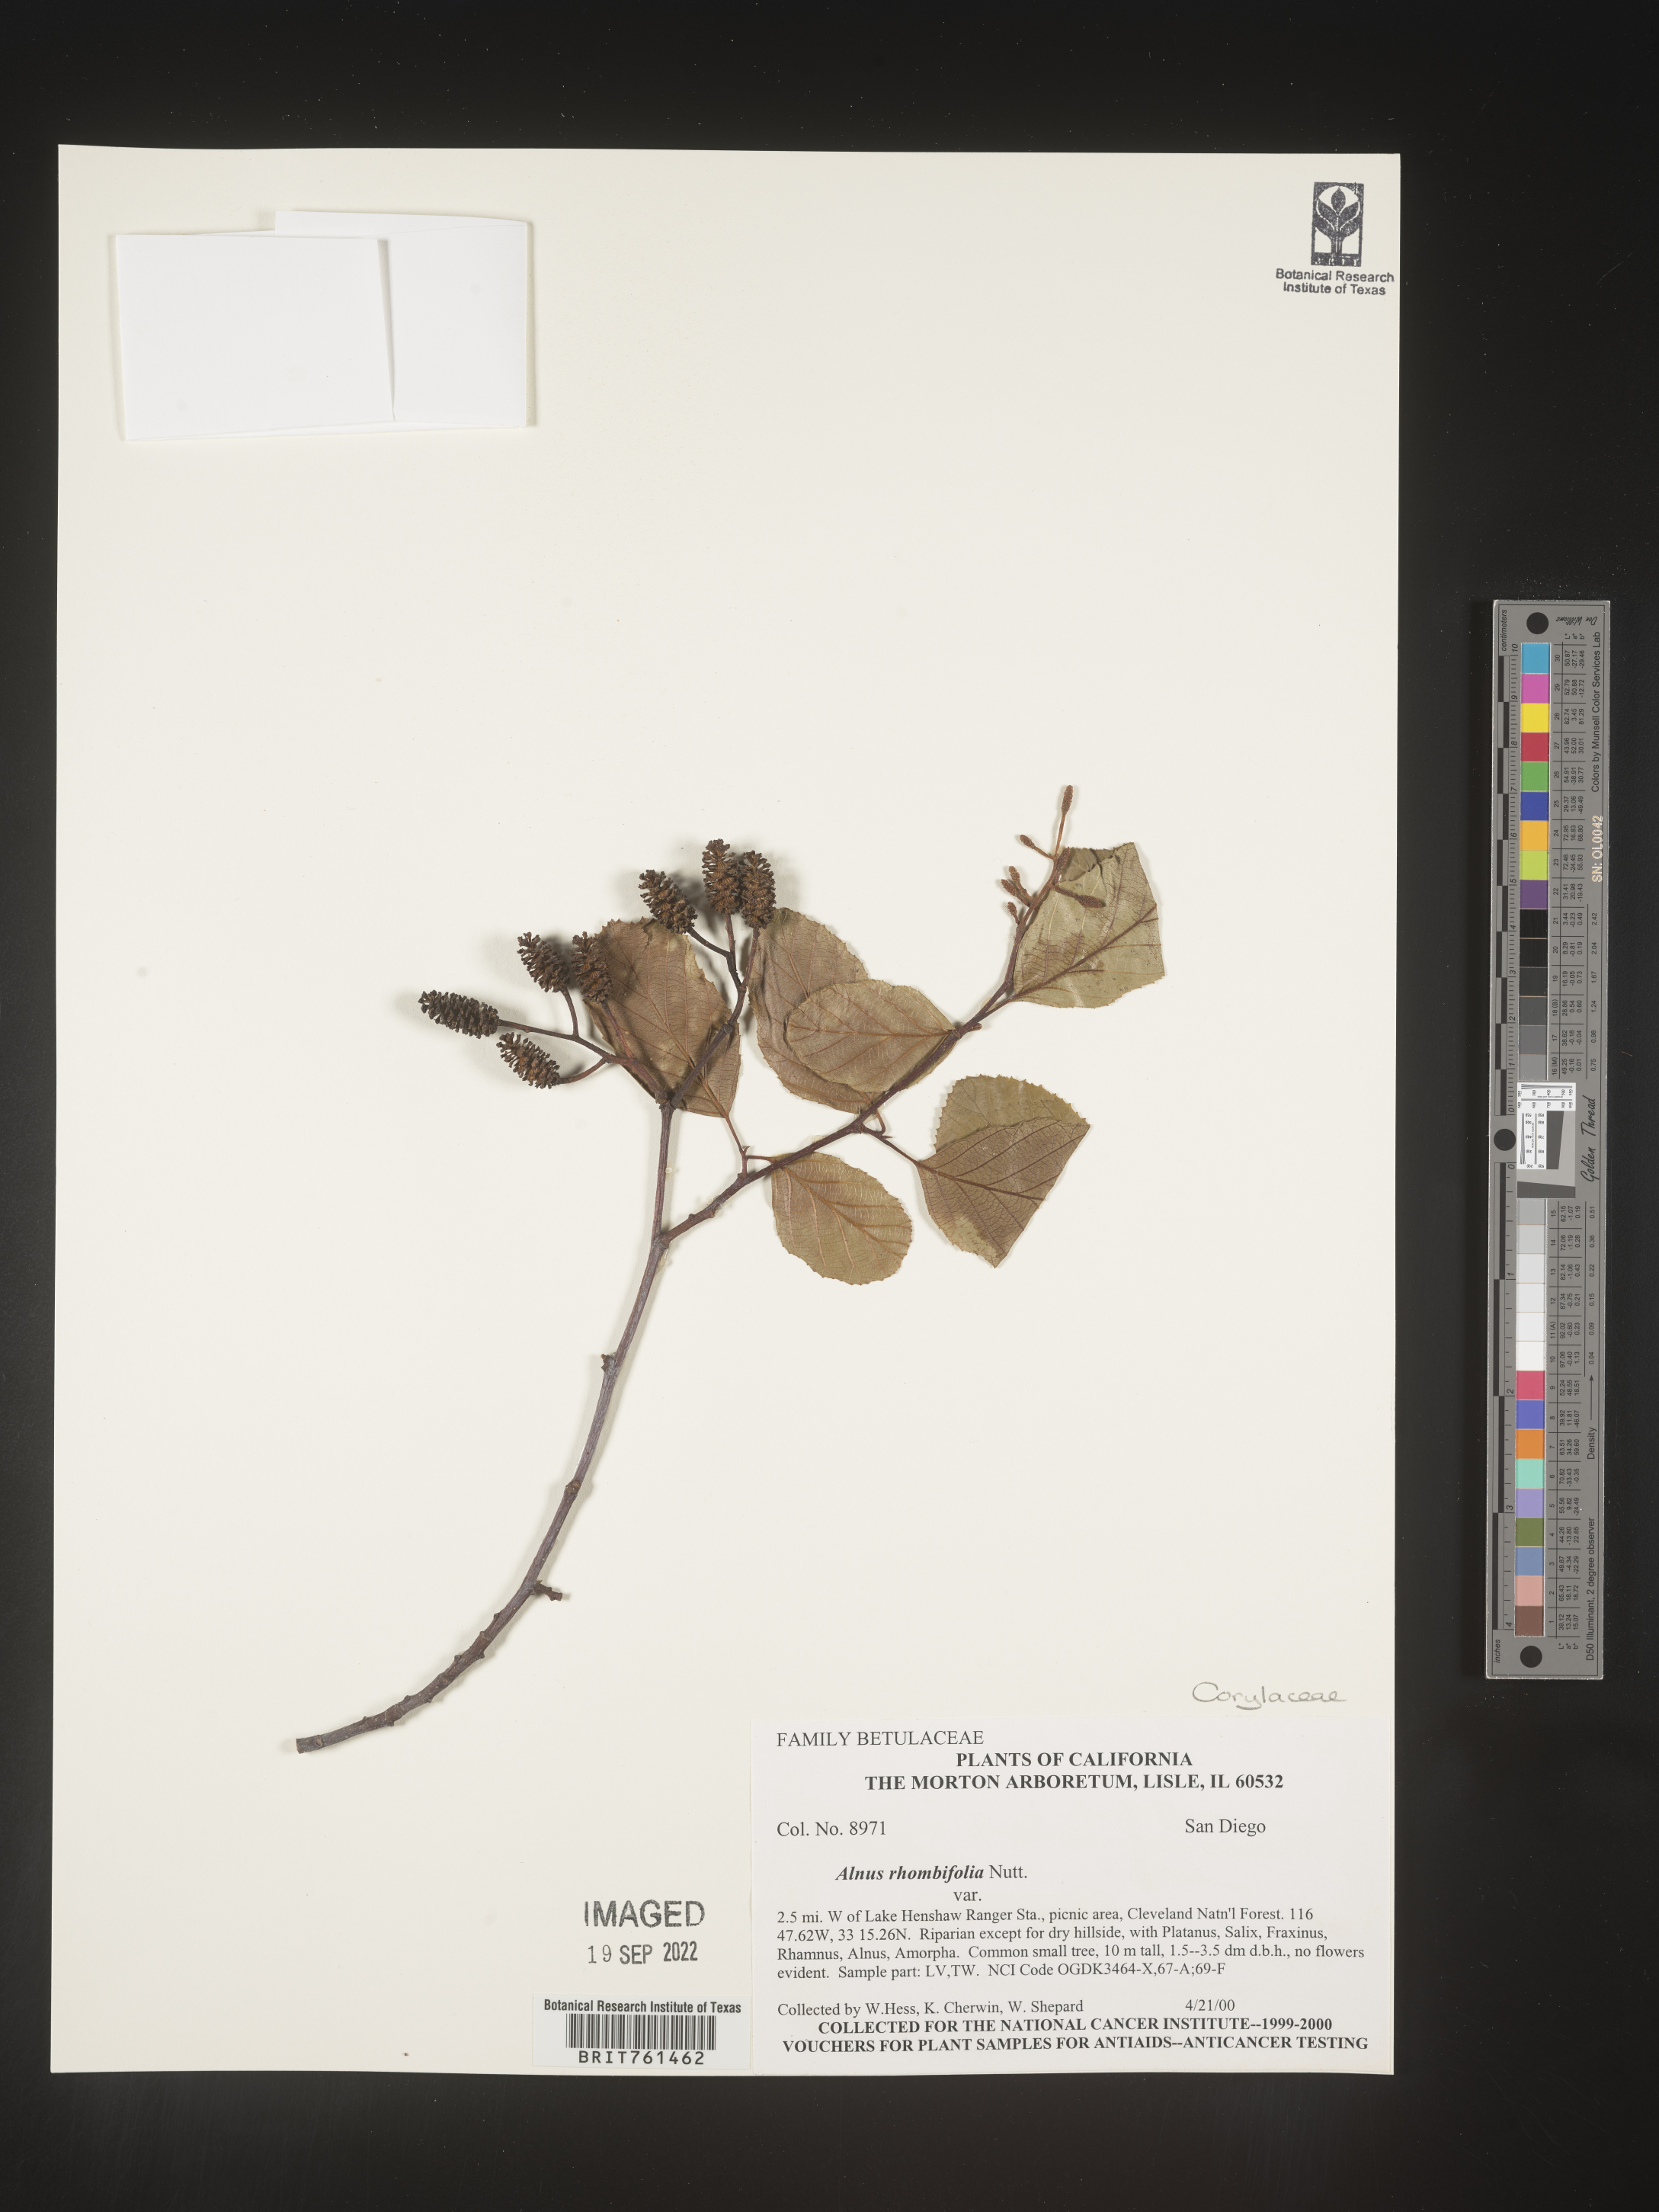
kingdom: Plantae
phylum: Tracheophyta
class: Magnoliopsida
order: Fagales
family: Betulaceae
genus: Alnus
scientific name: Alnus rhombifolia
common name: California alder
